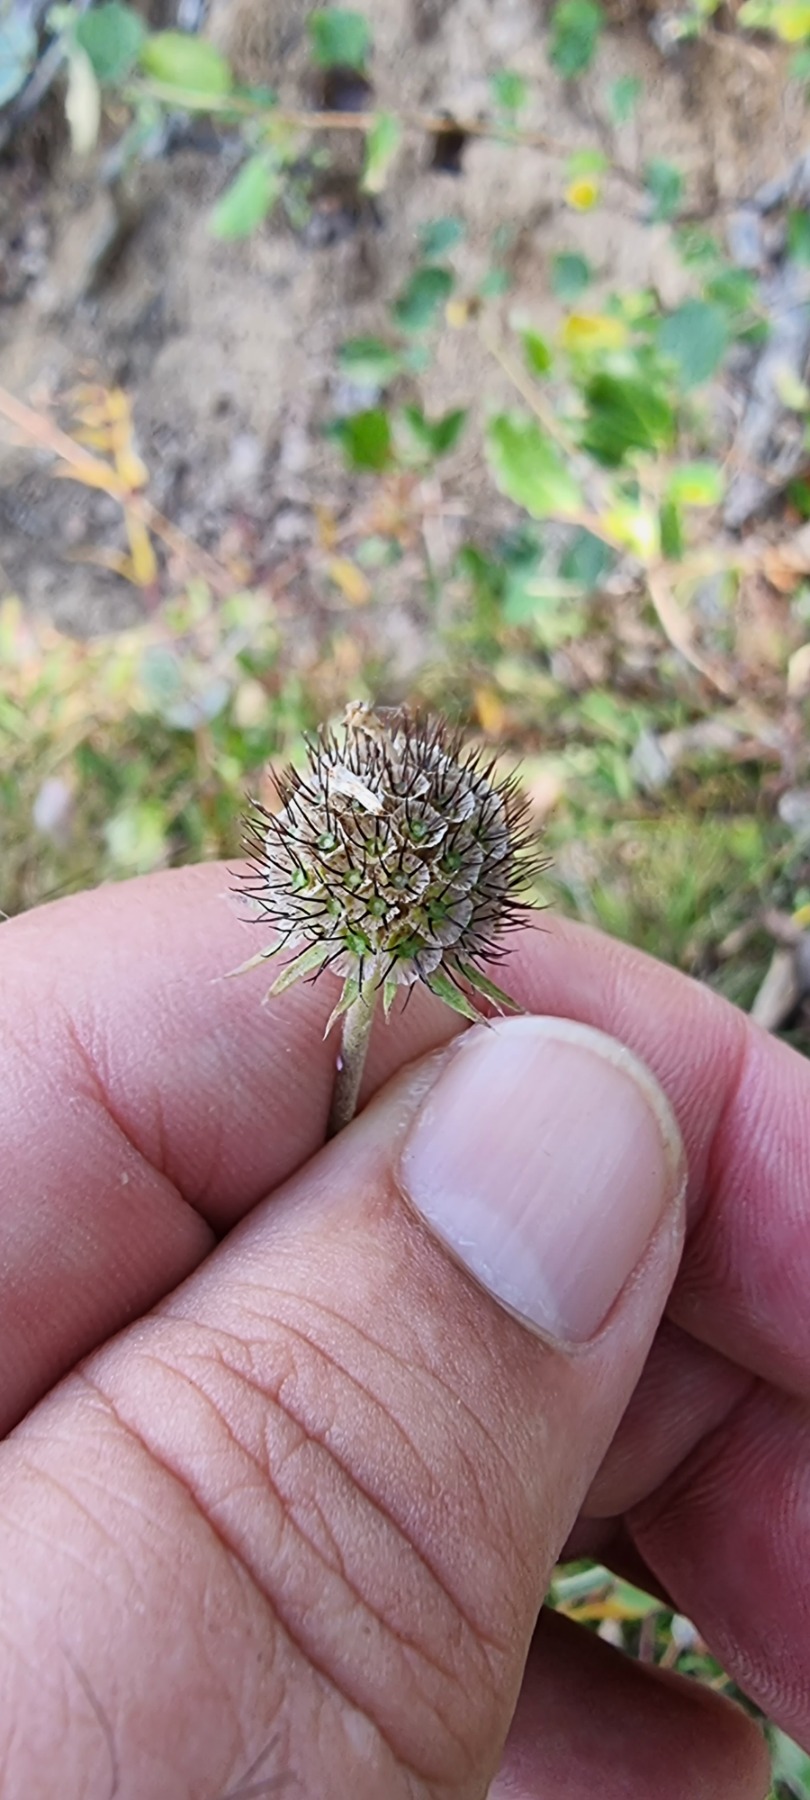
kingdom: Plantae
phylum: Tracheophyta
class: Magnoliopsida
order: Dipsacales
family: Caprifoliaceae
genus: Scabiosa
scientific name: Scabiosa columbaria
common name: Due-skabiose
